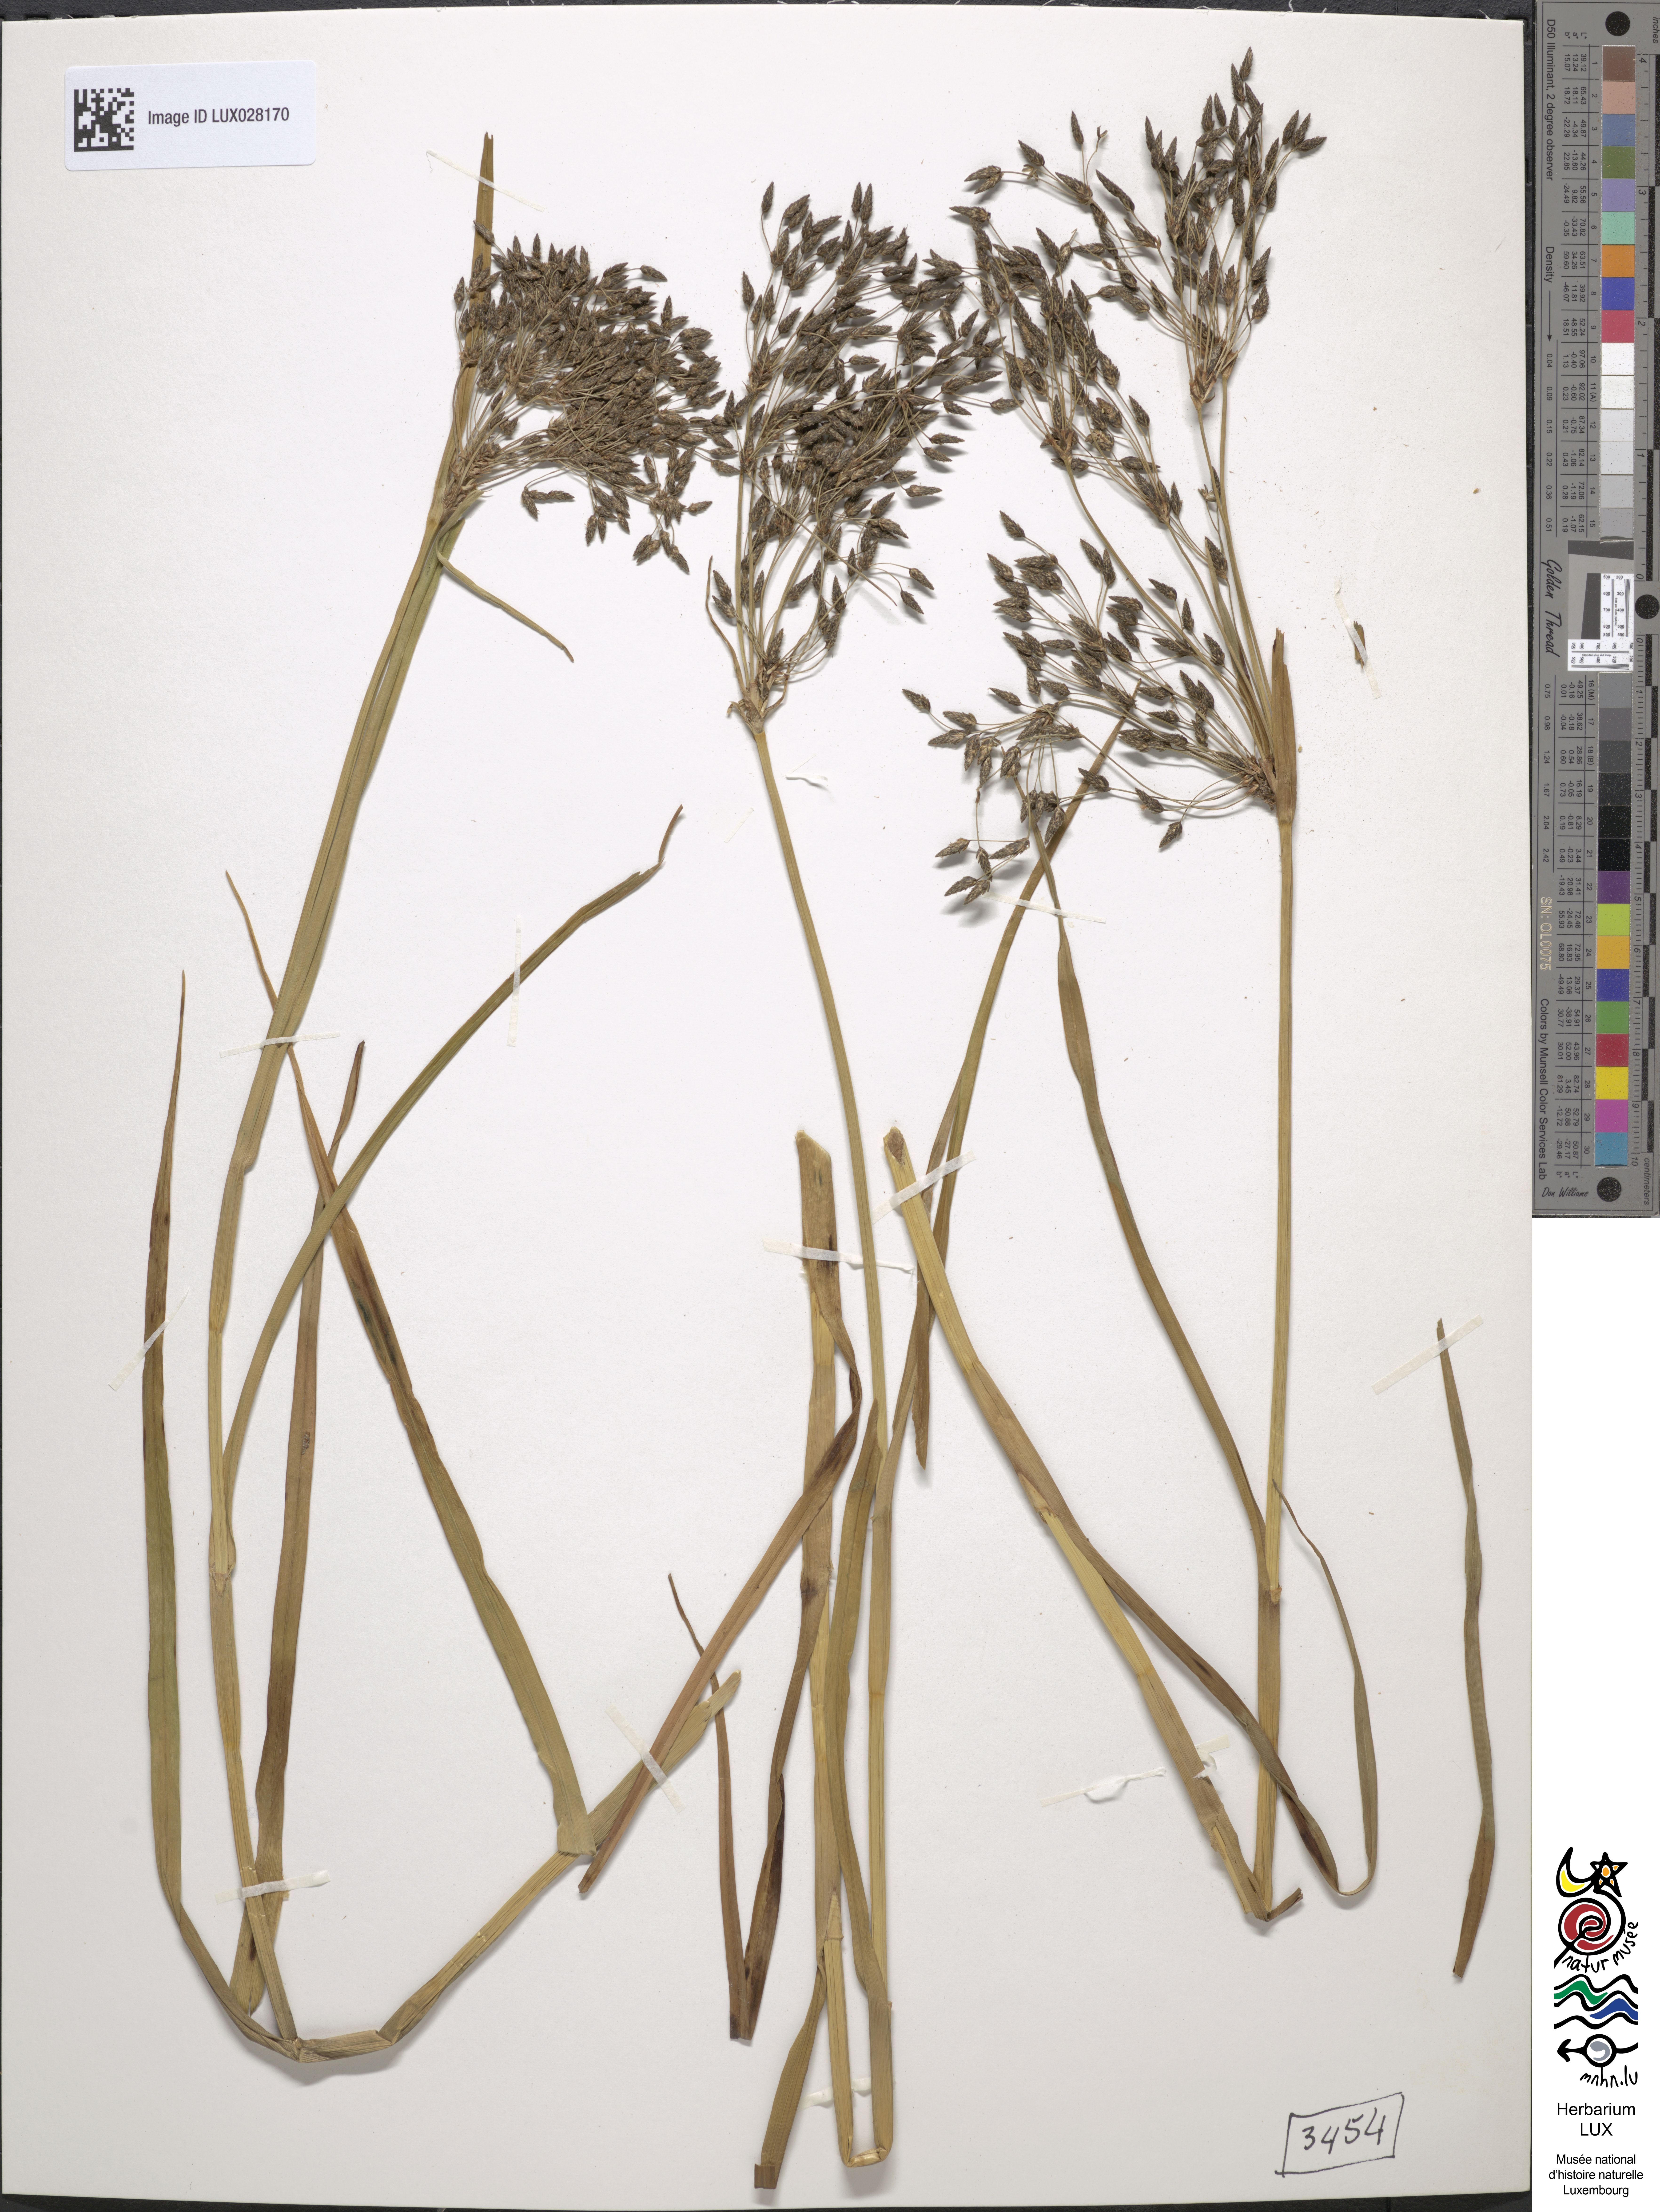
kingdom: Plantae
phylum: Tracheophyta
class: Liliopsida
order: Poales
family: Cyperaceae
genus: Scirpus
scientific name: Scirpus radicans
